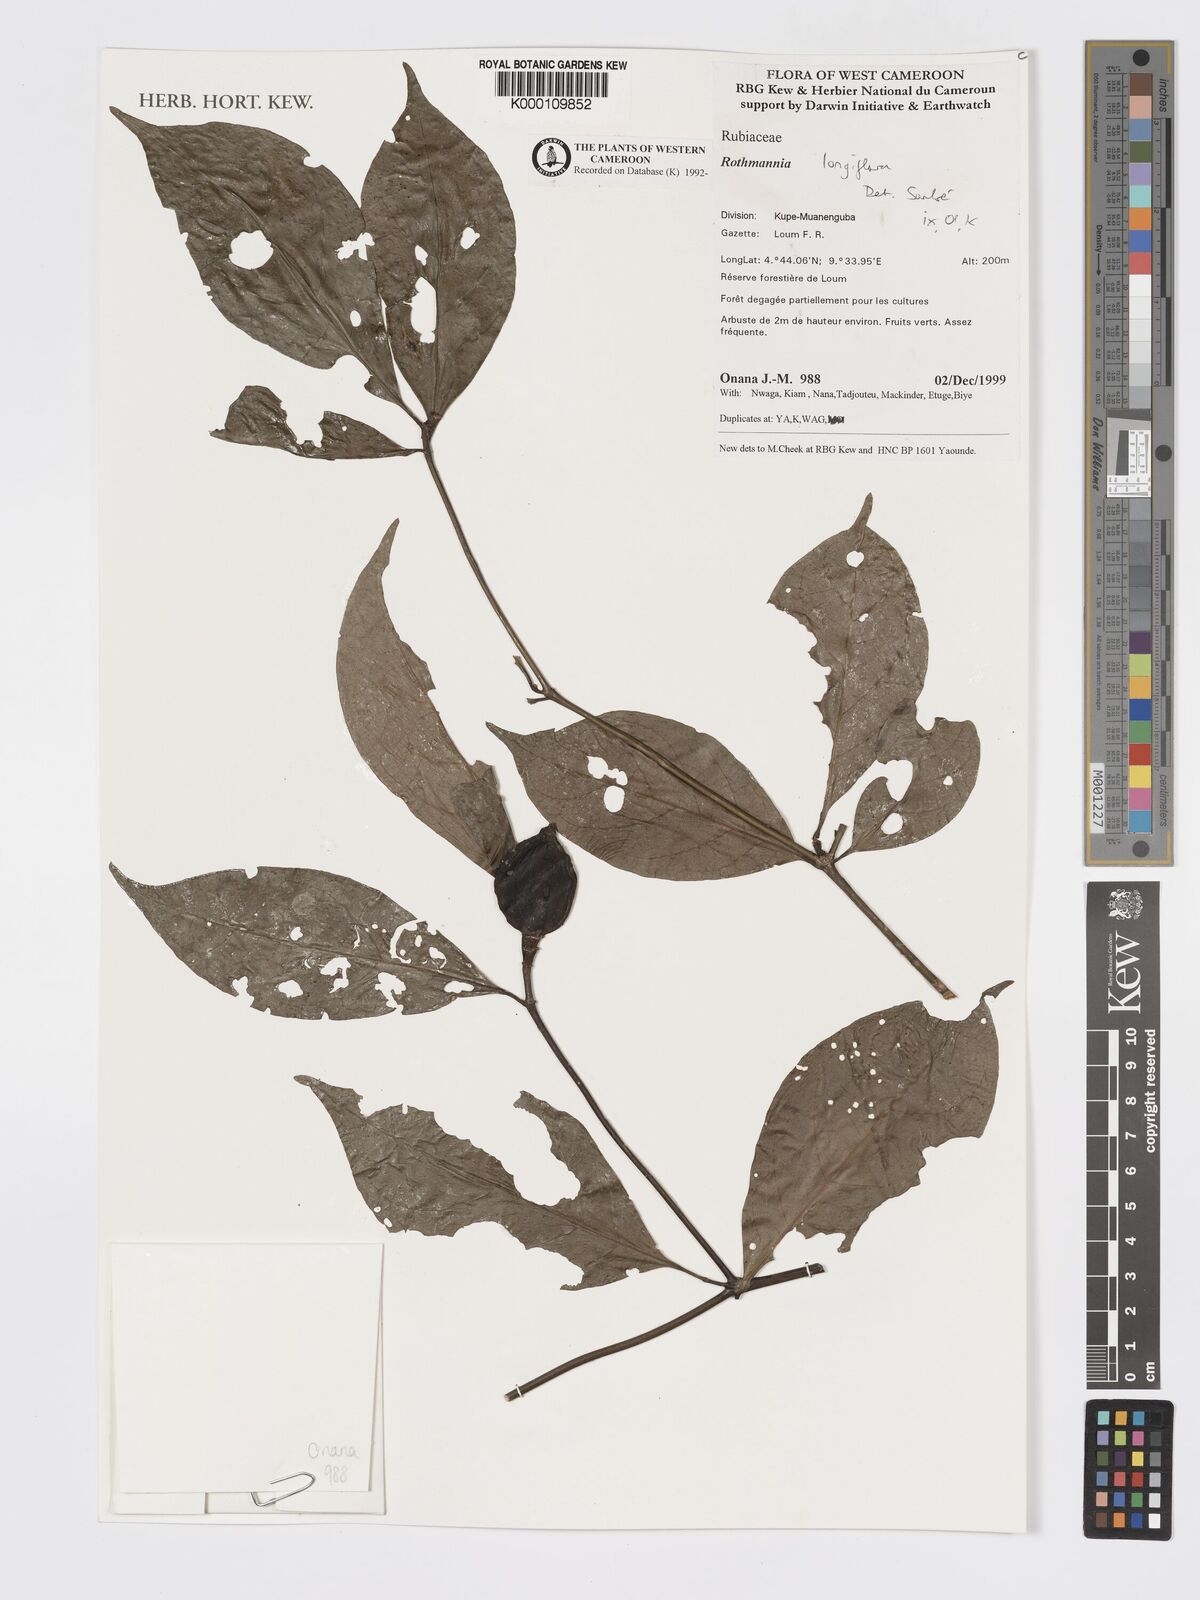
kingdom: Plantae
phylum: Tracheophyta
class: Magnoliopsida
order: Gentianales
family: Rubiaceae
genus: Rothmannia
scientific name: Rothmannia longiflora
